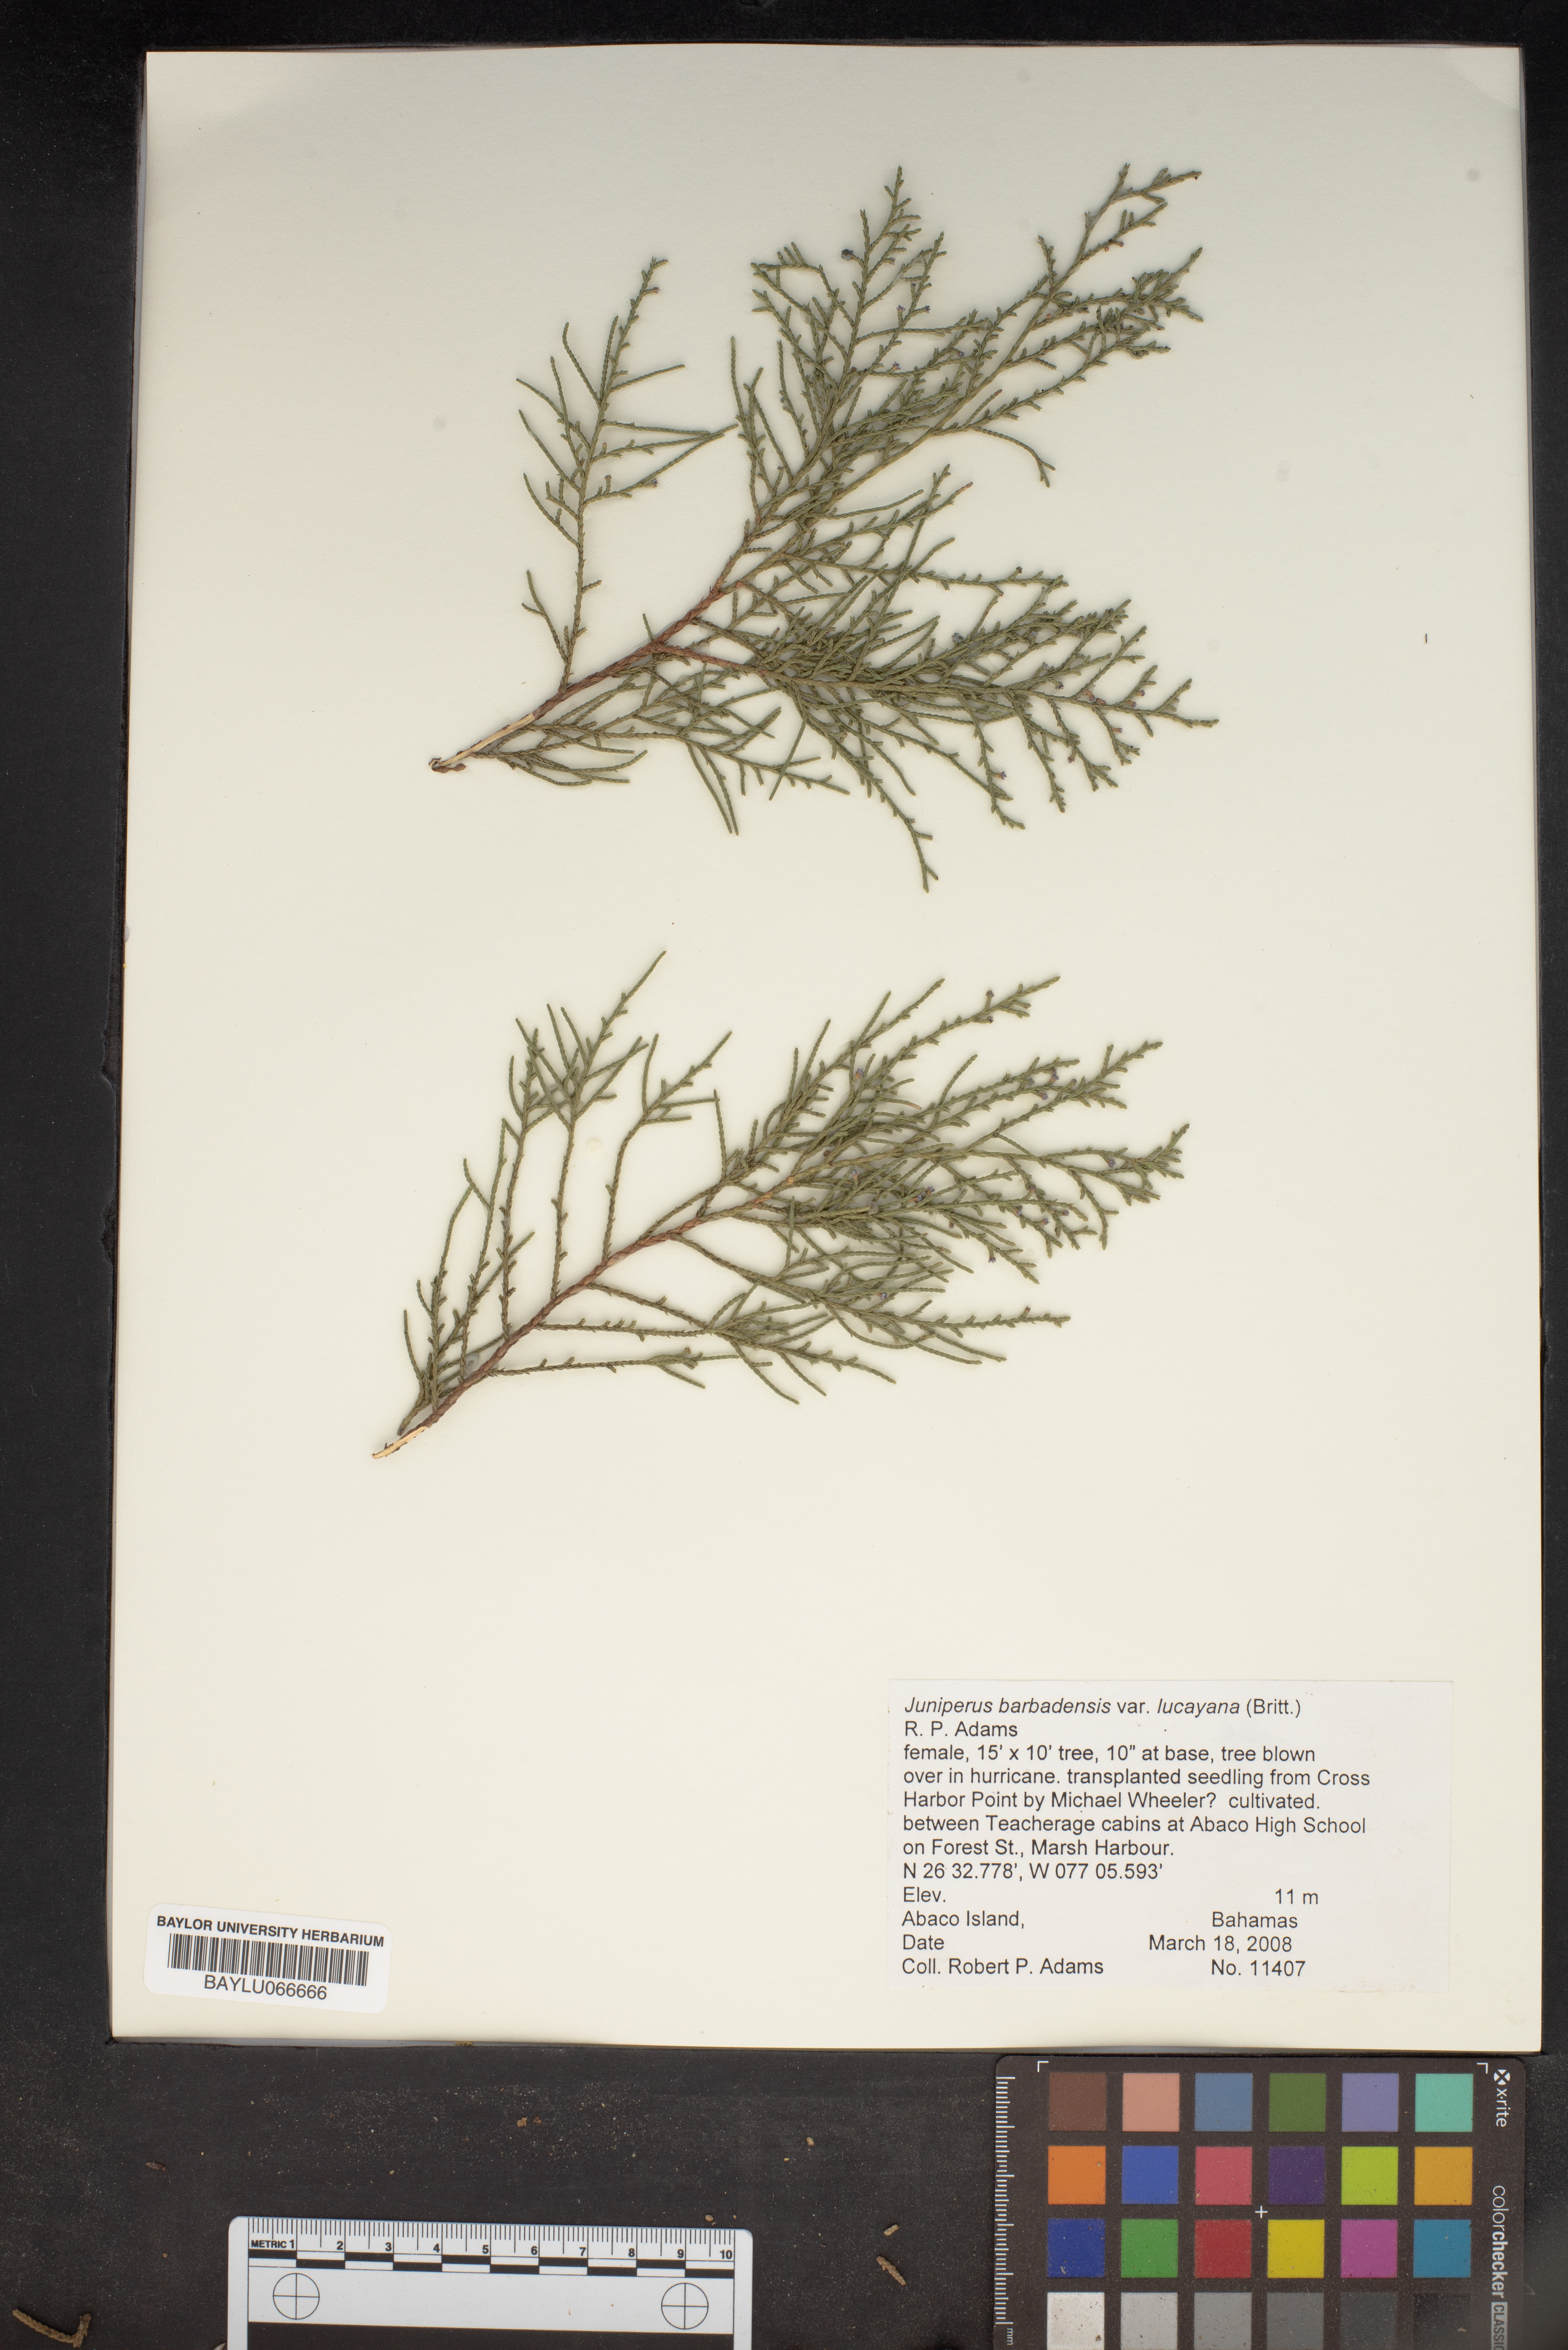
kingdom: Plantae
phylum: Tracheophyta
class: Pinopsida
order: Pinales
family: Cupressaceae
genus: Juniperus
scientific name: Juniperus barbadensis
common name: West indies juniper
